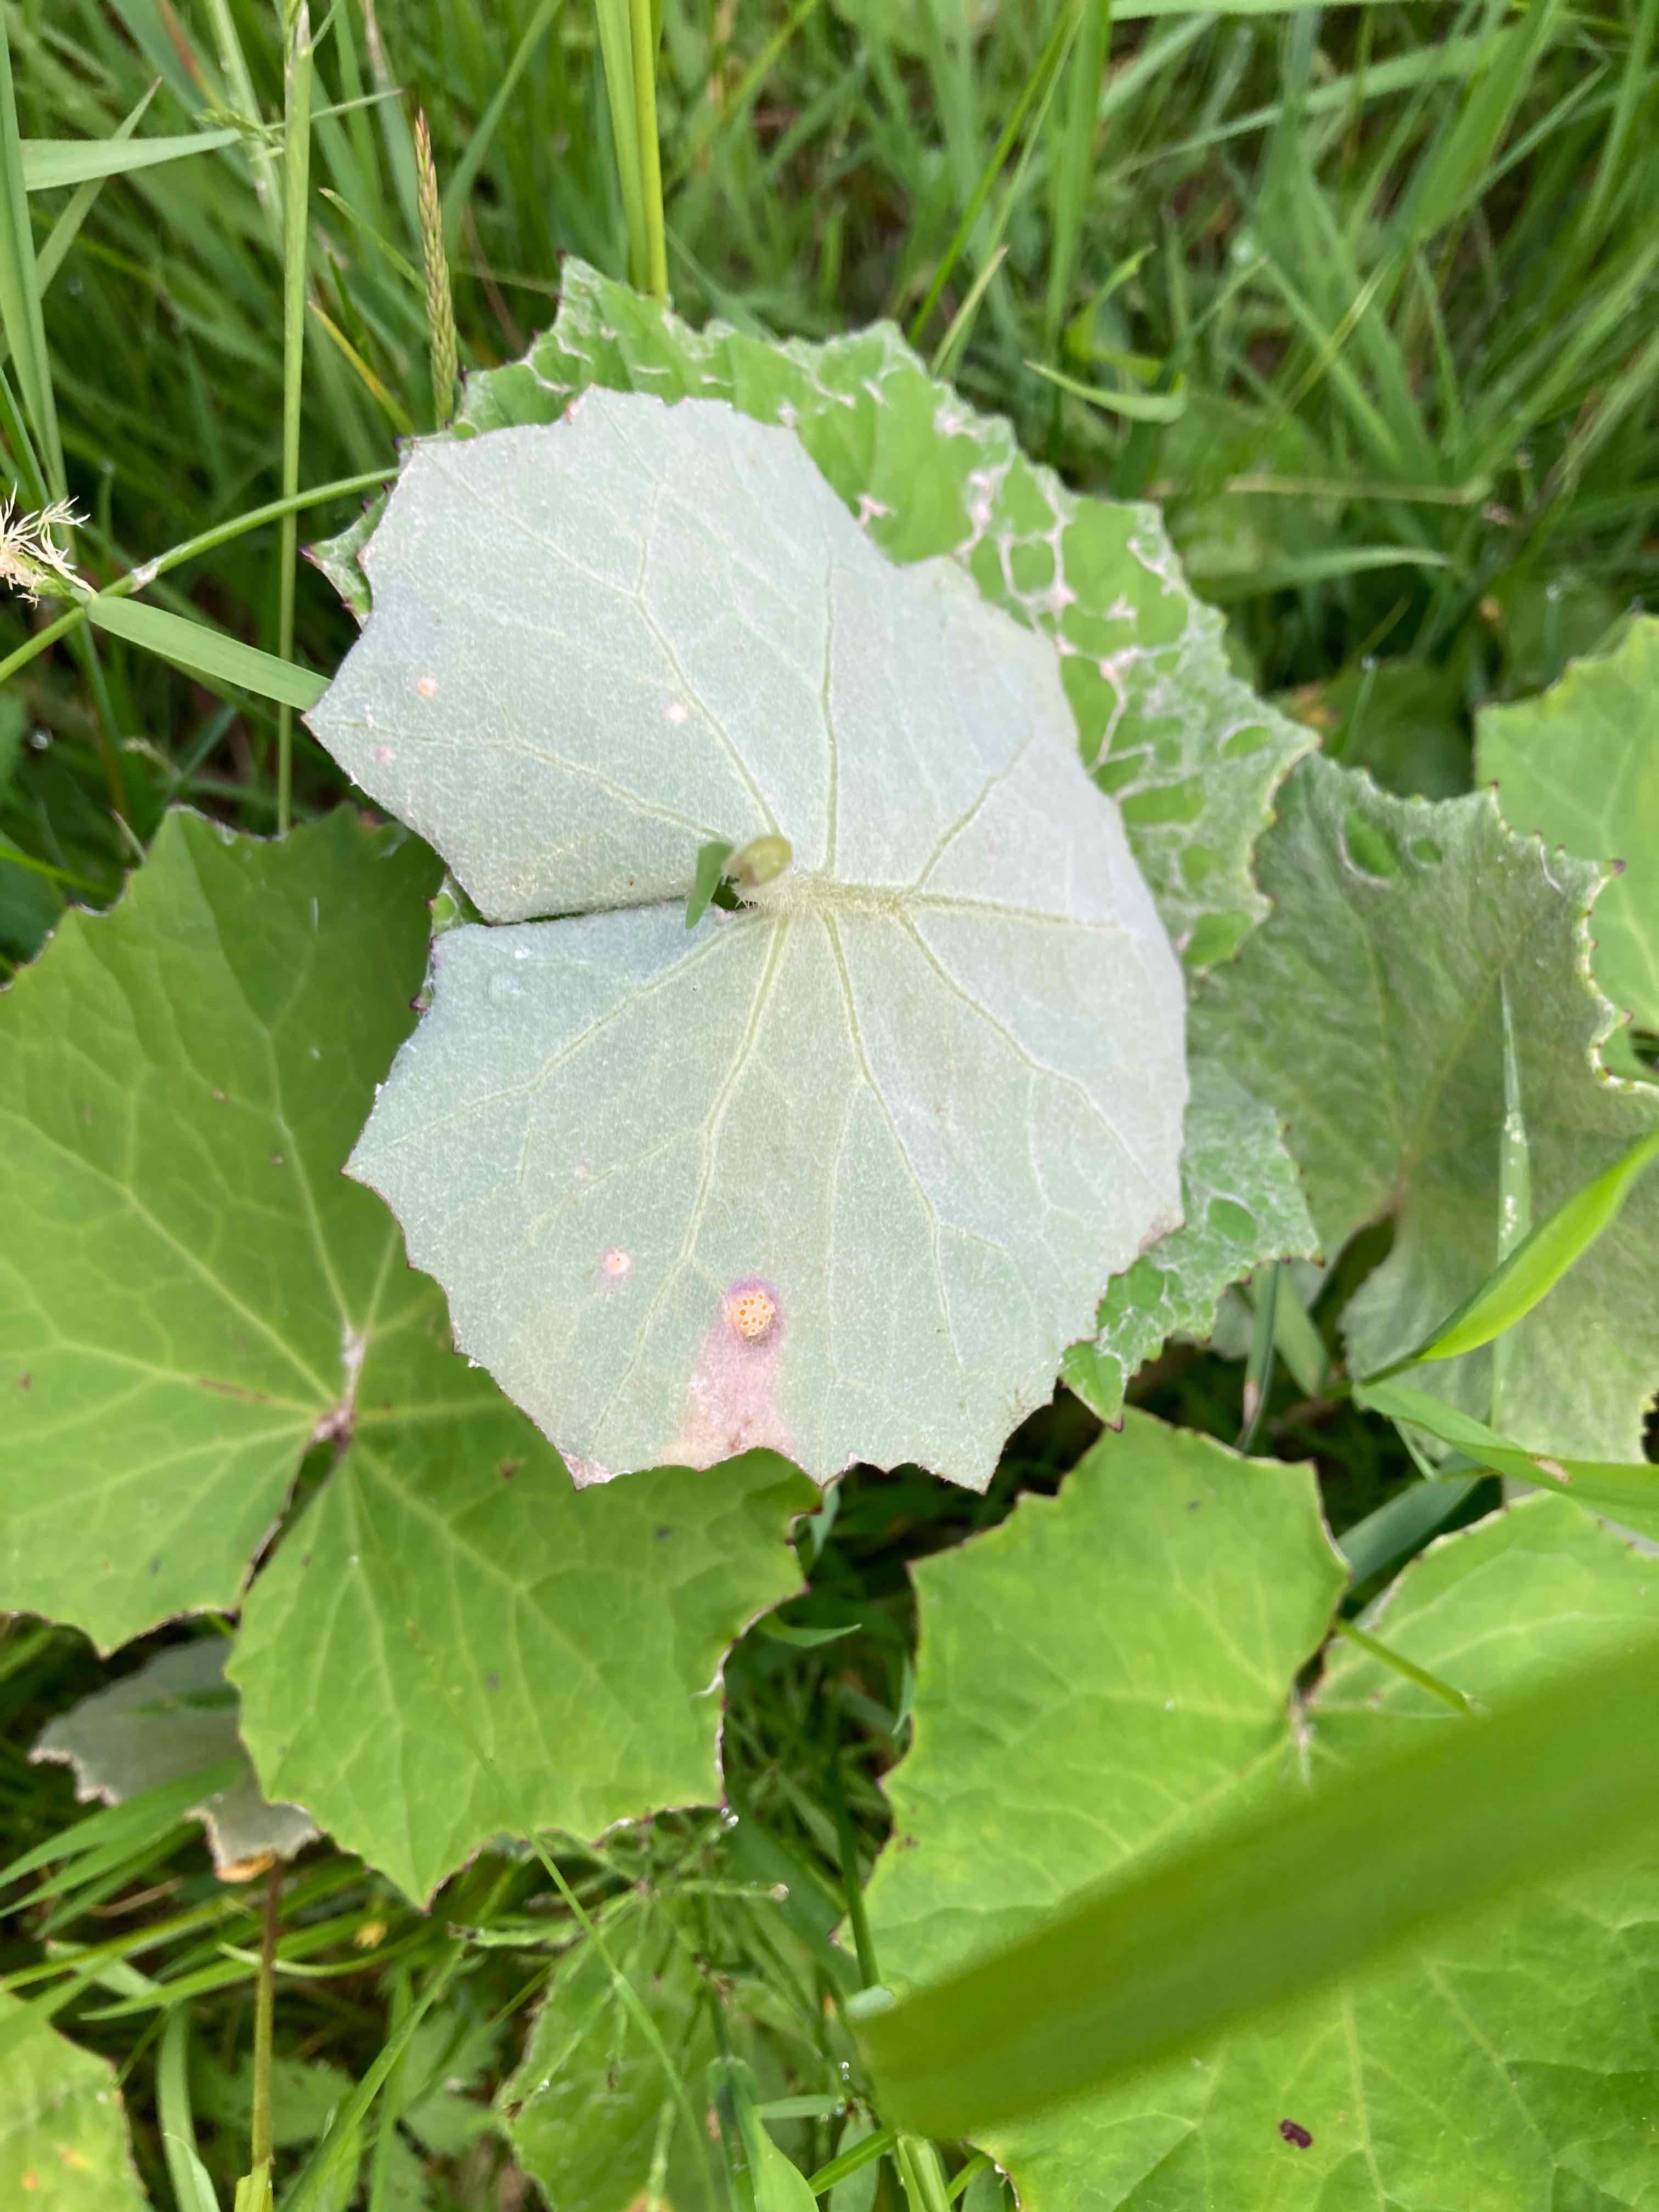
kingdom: Fungi
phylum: Basidiomycota
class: Pucciniomycetes
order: Pucciniales
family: Pucciniaceae
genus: Puccinia
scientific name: Puccinia poarum
